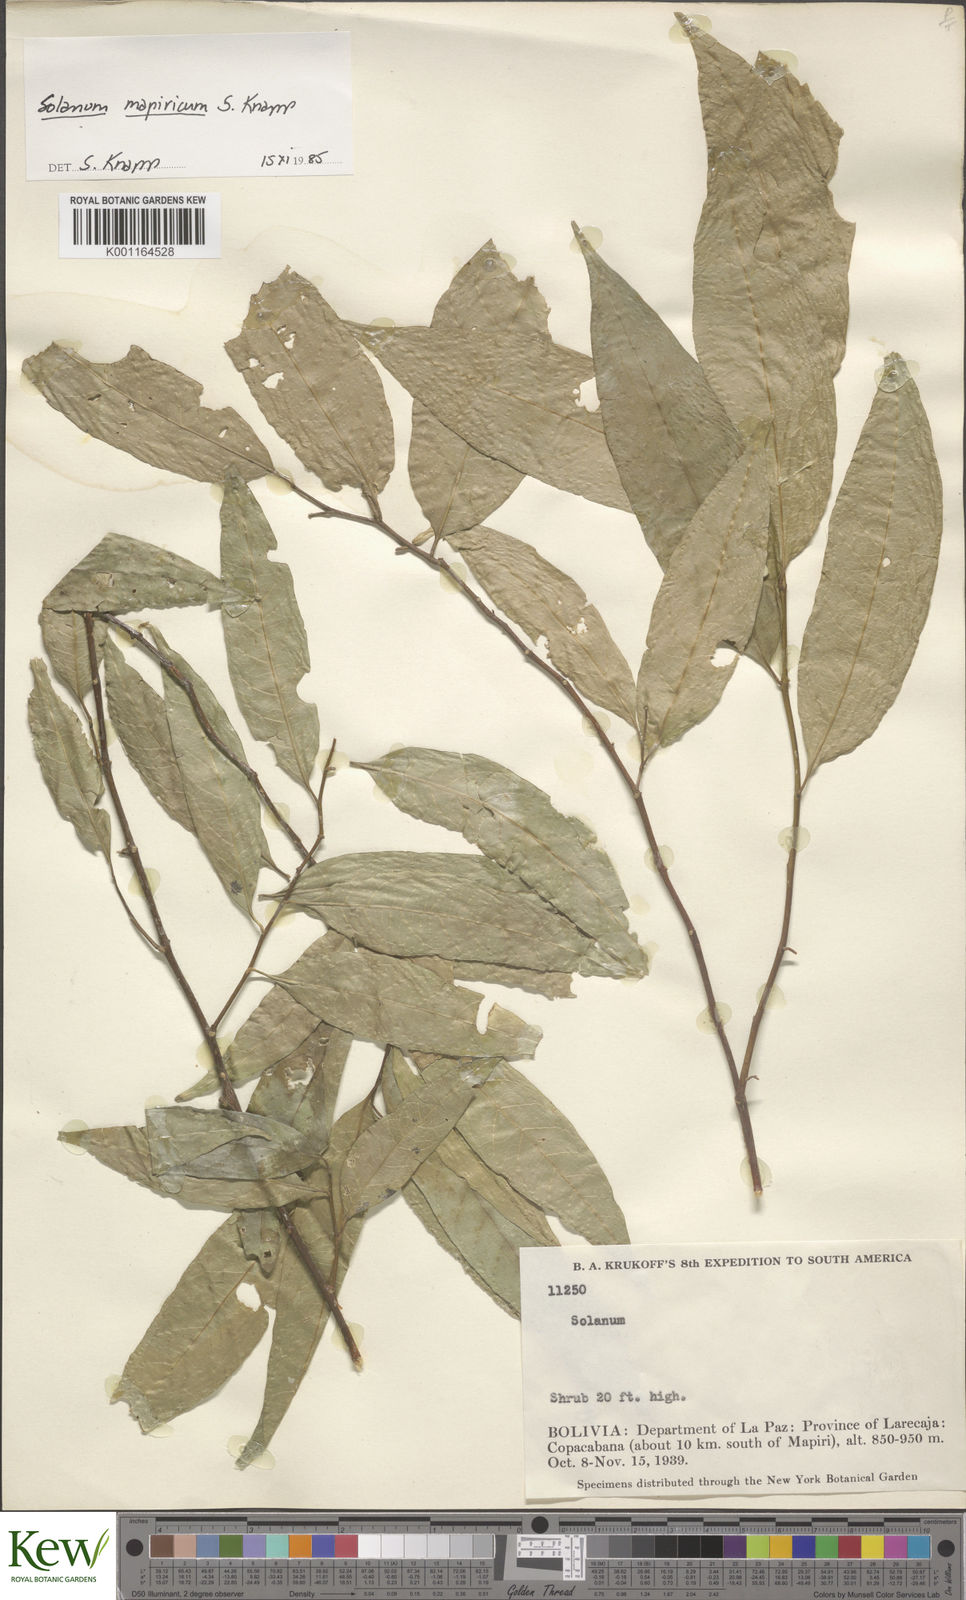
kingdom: Plantae
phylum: Tracheophyta
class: Magnoliopsida
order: Solanales
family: Solanaceae
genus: Solanum
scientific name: Solanum mapiricum
